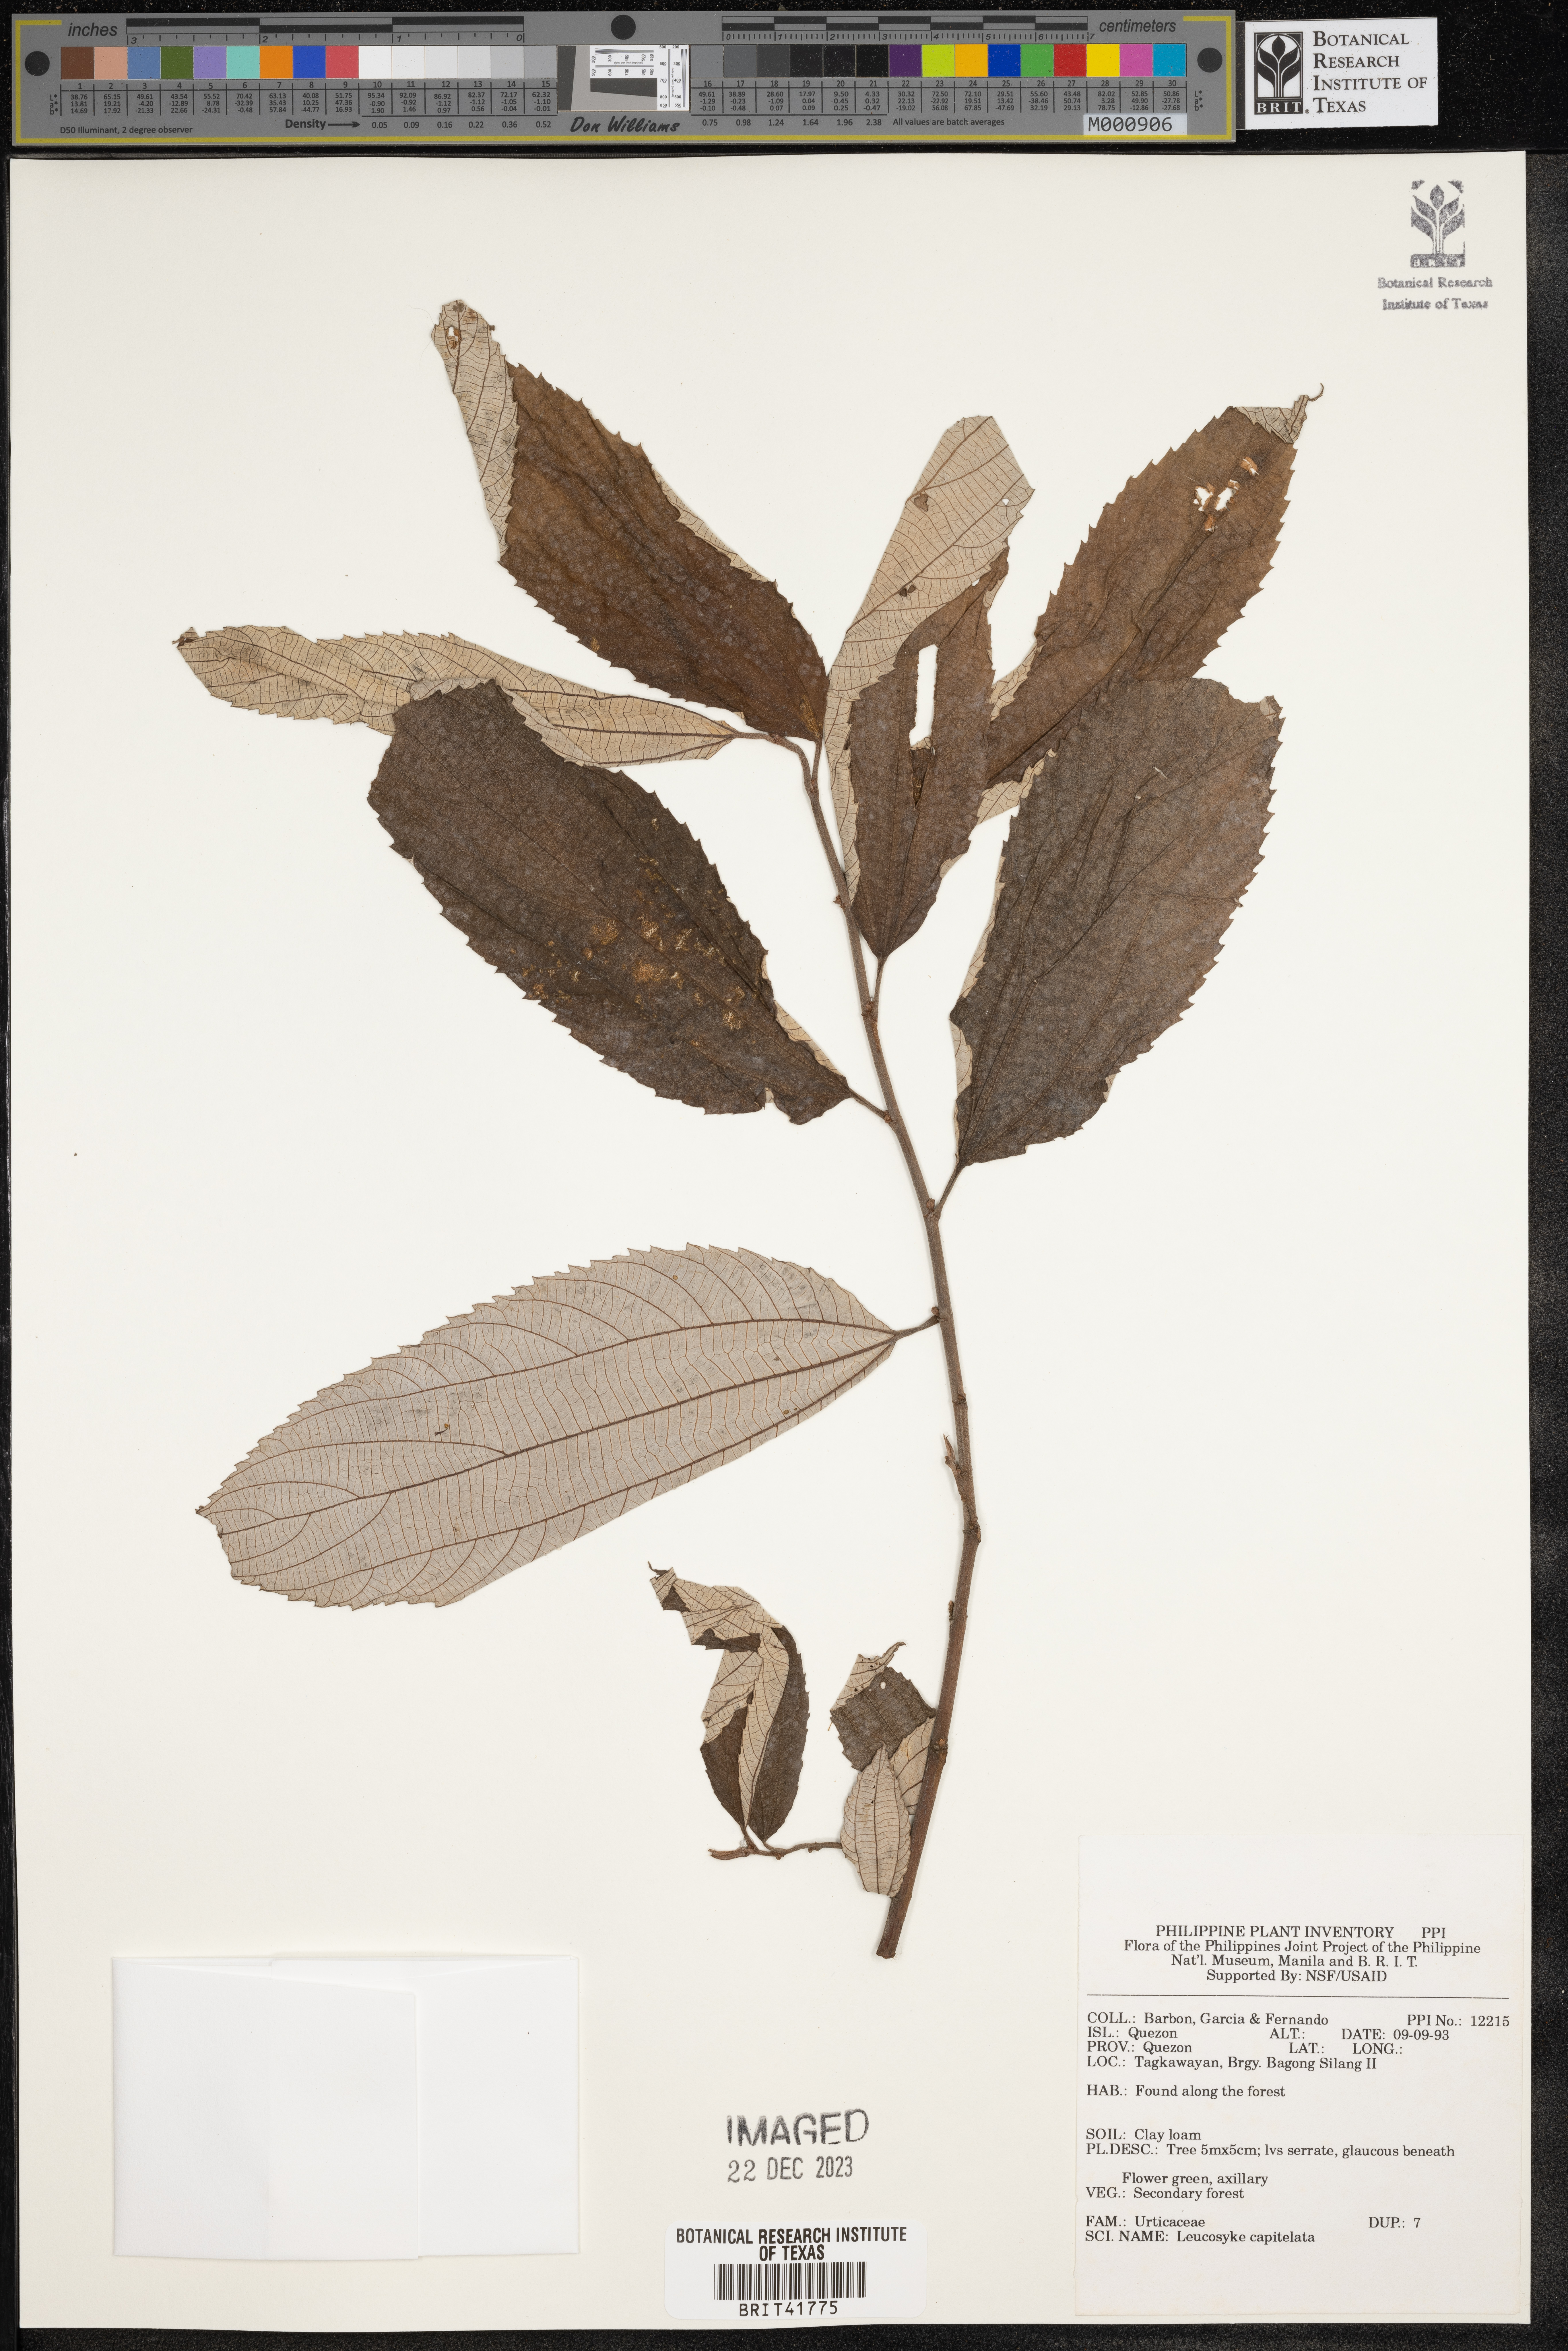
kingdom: Plantae
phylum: Tracheophyta
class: Magnoliopsida
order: Rosales
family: Urticaceae
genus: Leucosyke
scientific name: Leucosyke capitellata
